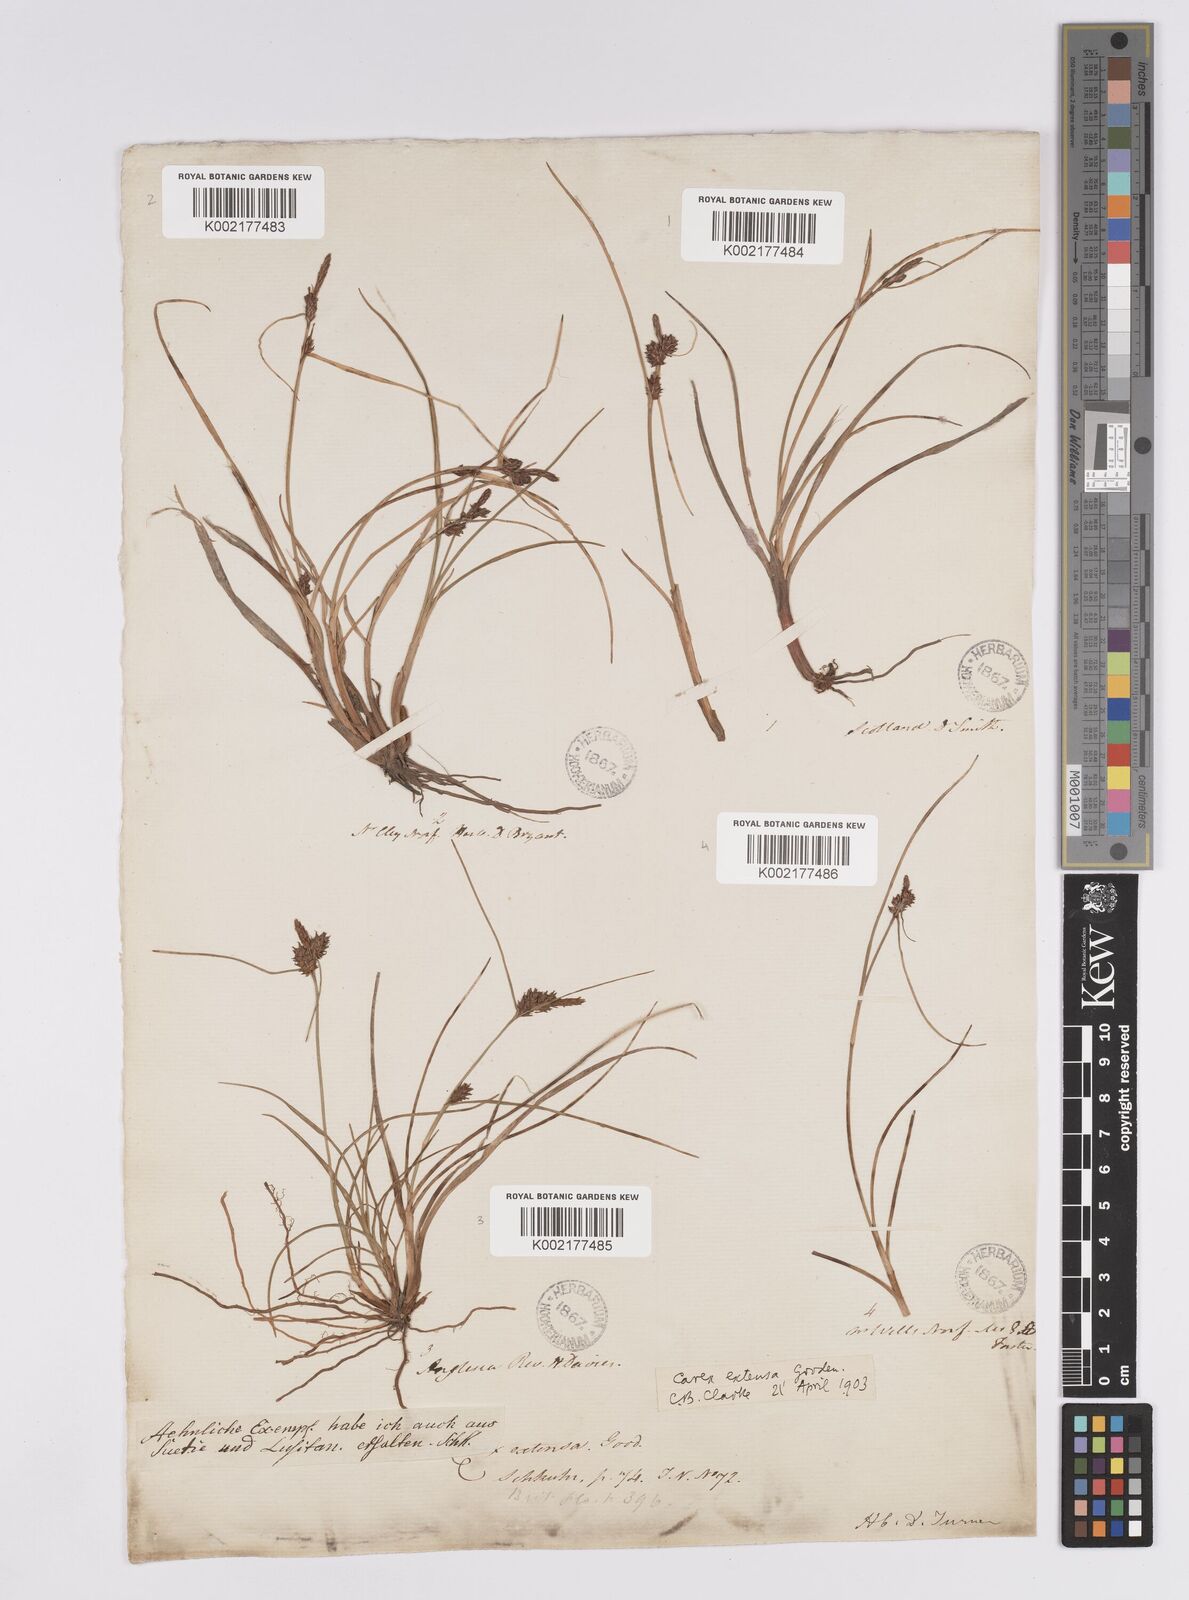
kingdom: Plantae
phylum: Tracheophyta
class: Liliopsida
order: Poales
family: Cyperaceae
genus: Carex
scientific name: Carex extensa
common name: Long-bracted sedge
